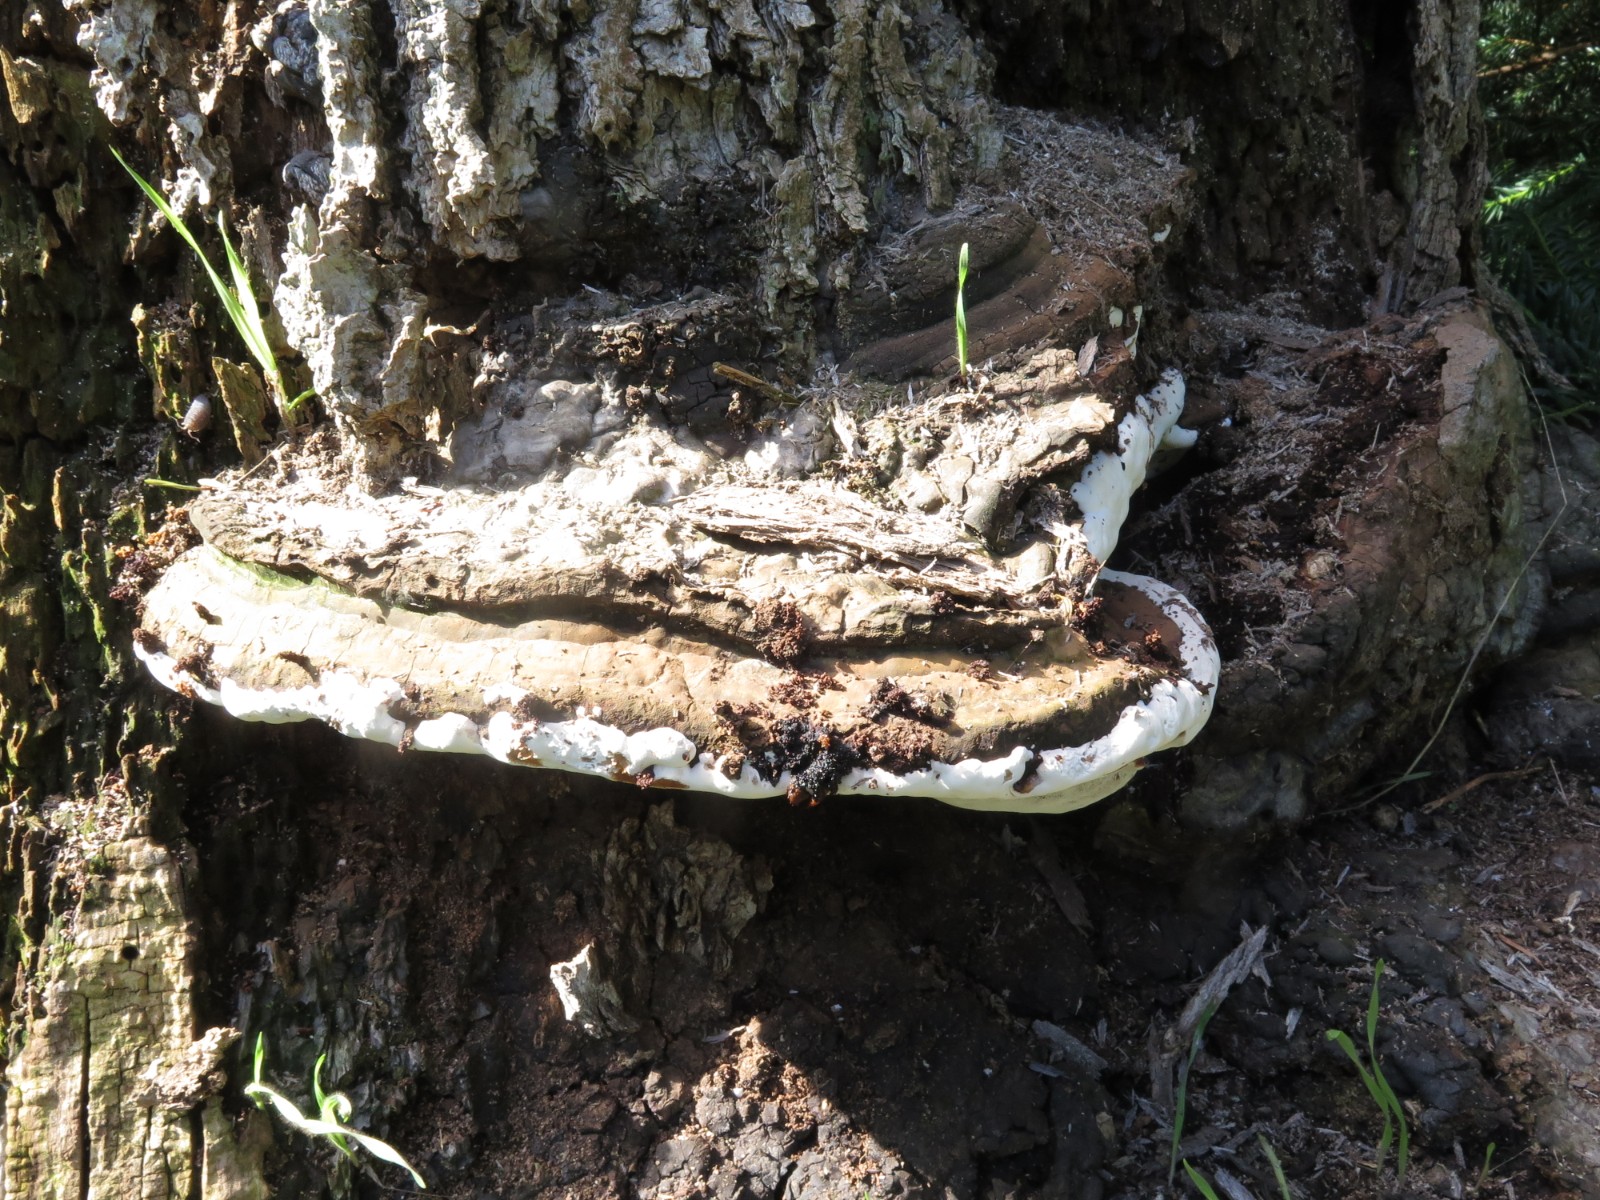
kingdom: Fungi
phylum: Basidiomycota
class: Agaricomycetes
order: Polyporales
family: Polyporaceae
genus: Ganoderma
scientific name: Ganoderma applanatum
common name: flad lakporesvamp
